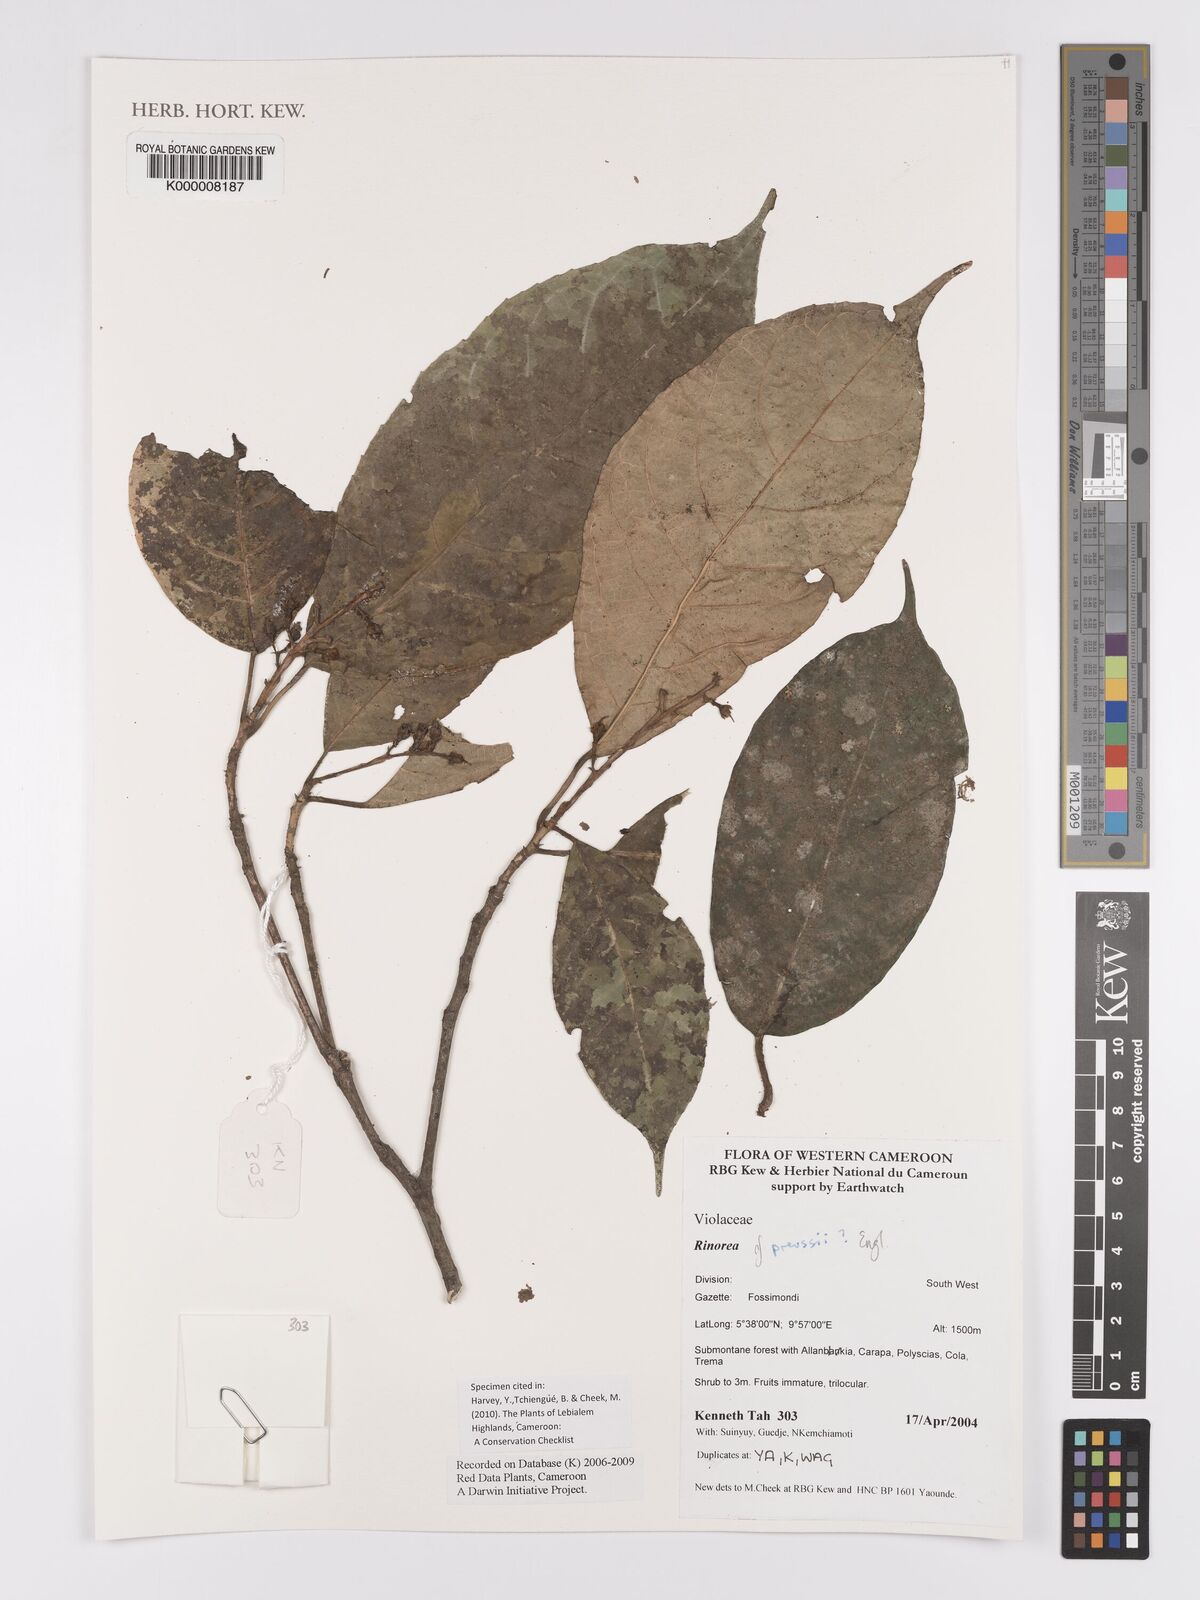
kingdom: Plantae
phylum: Tracheophyta
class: Magnoliopsida
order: Malpighiales
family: Violaceae
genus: Rinorea
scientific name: Rinorea preussii
